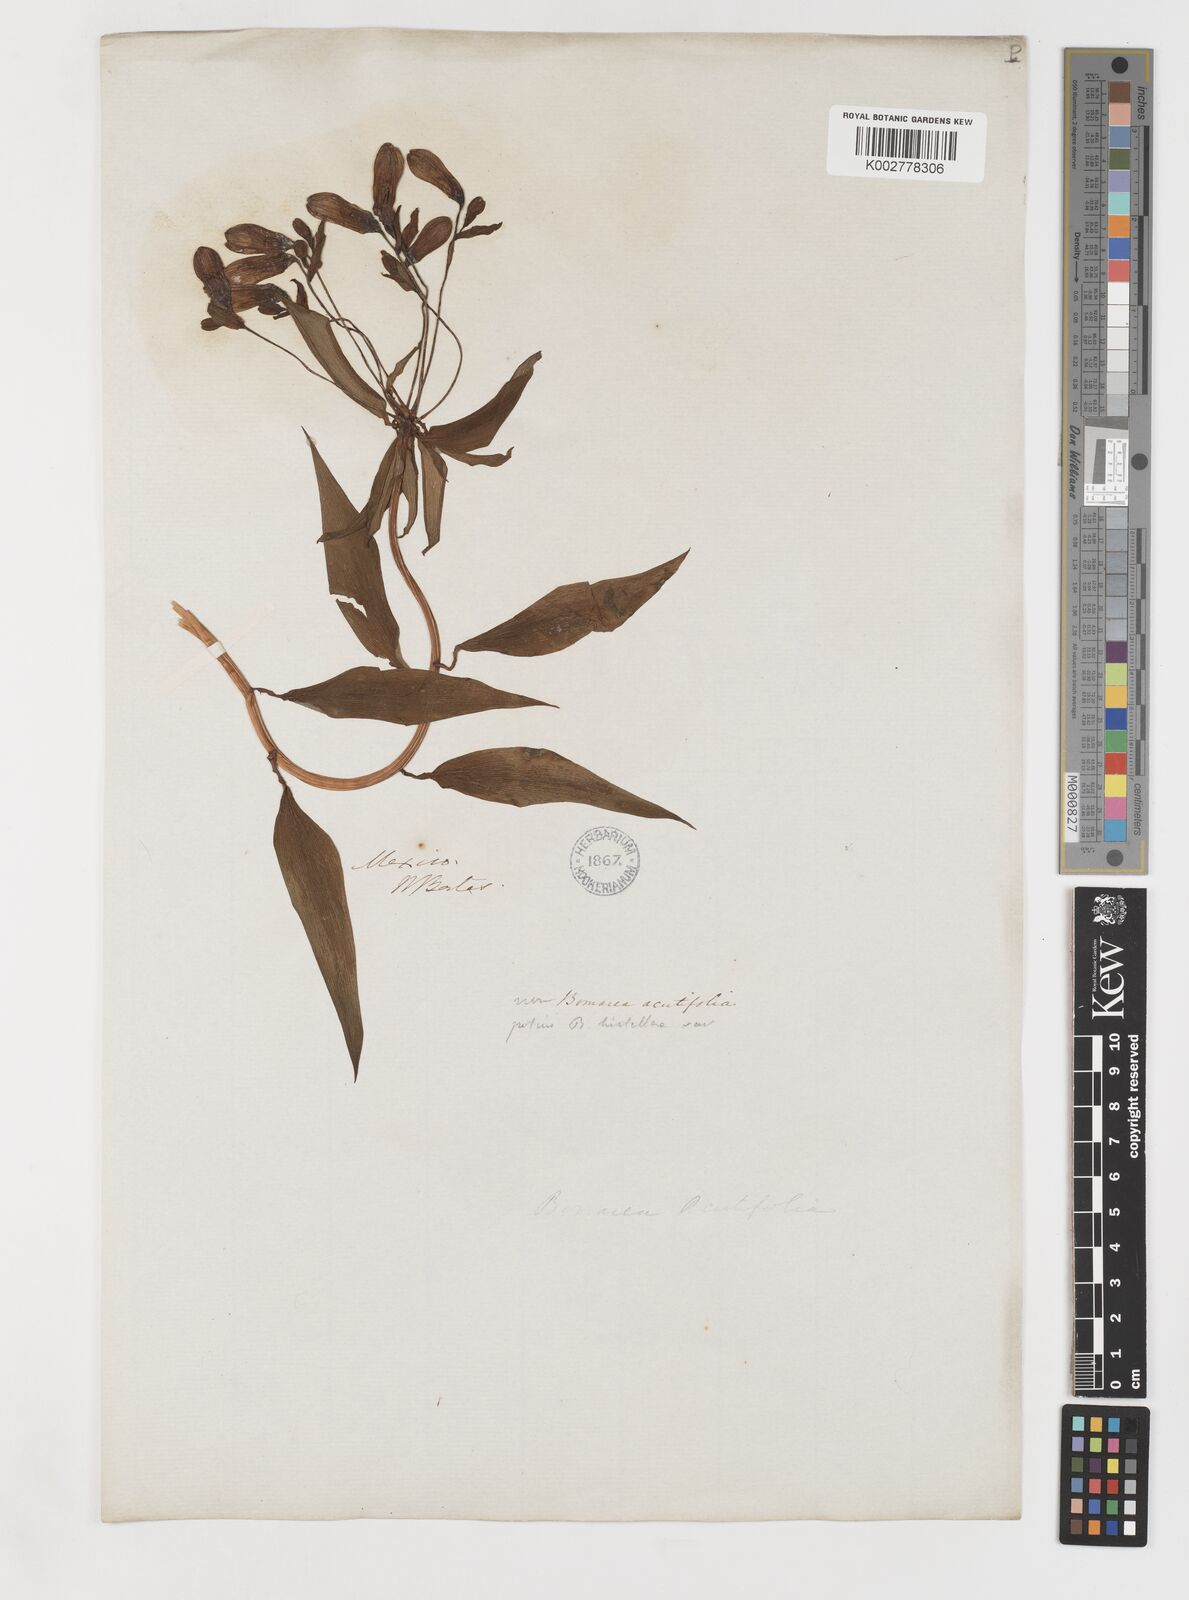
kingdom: Plantae
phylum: Tracheophyta
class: Liliopsida
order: Liliales
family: Alstroemeriaceae
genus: Bomarea
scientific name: Bomarea edulis
